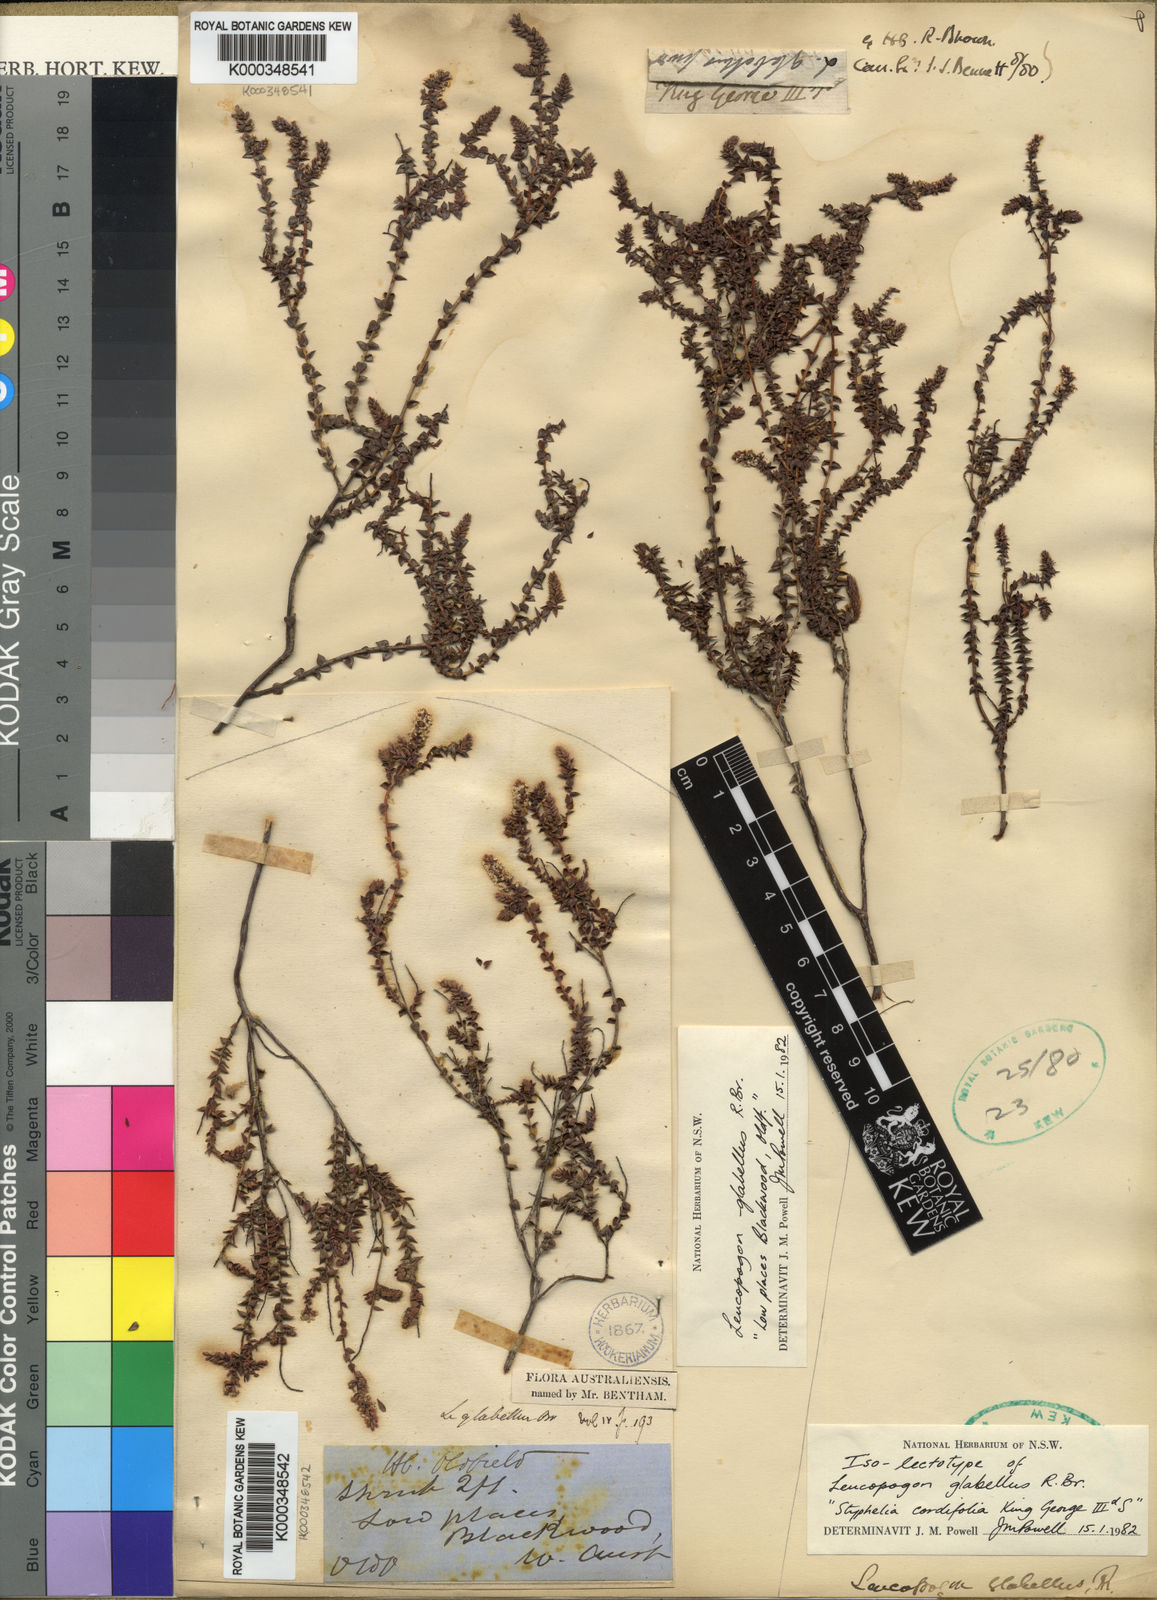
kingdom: Plantae
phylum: Tracheophyta
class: Magnoliopsida
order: Ericales
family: Ericaceae
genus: Leucopogon
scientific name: Leucopogon glabellus
